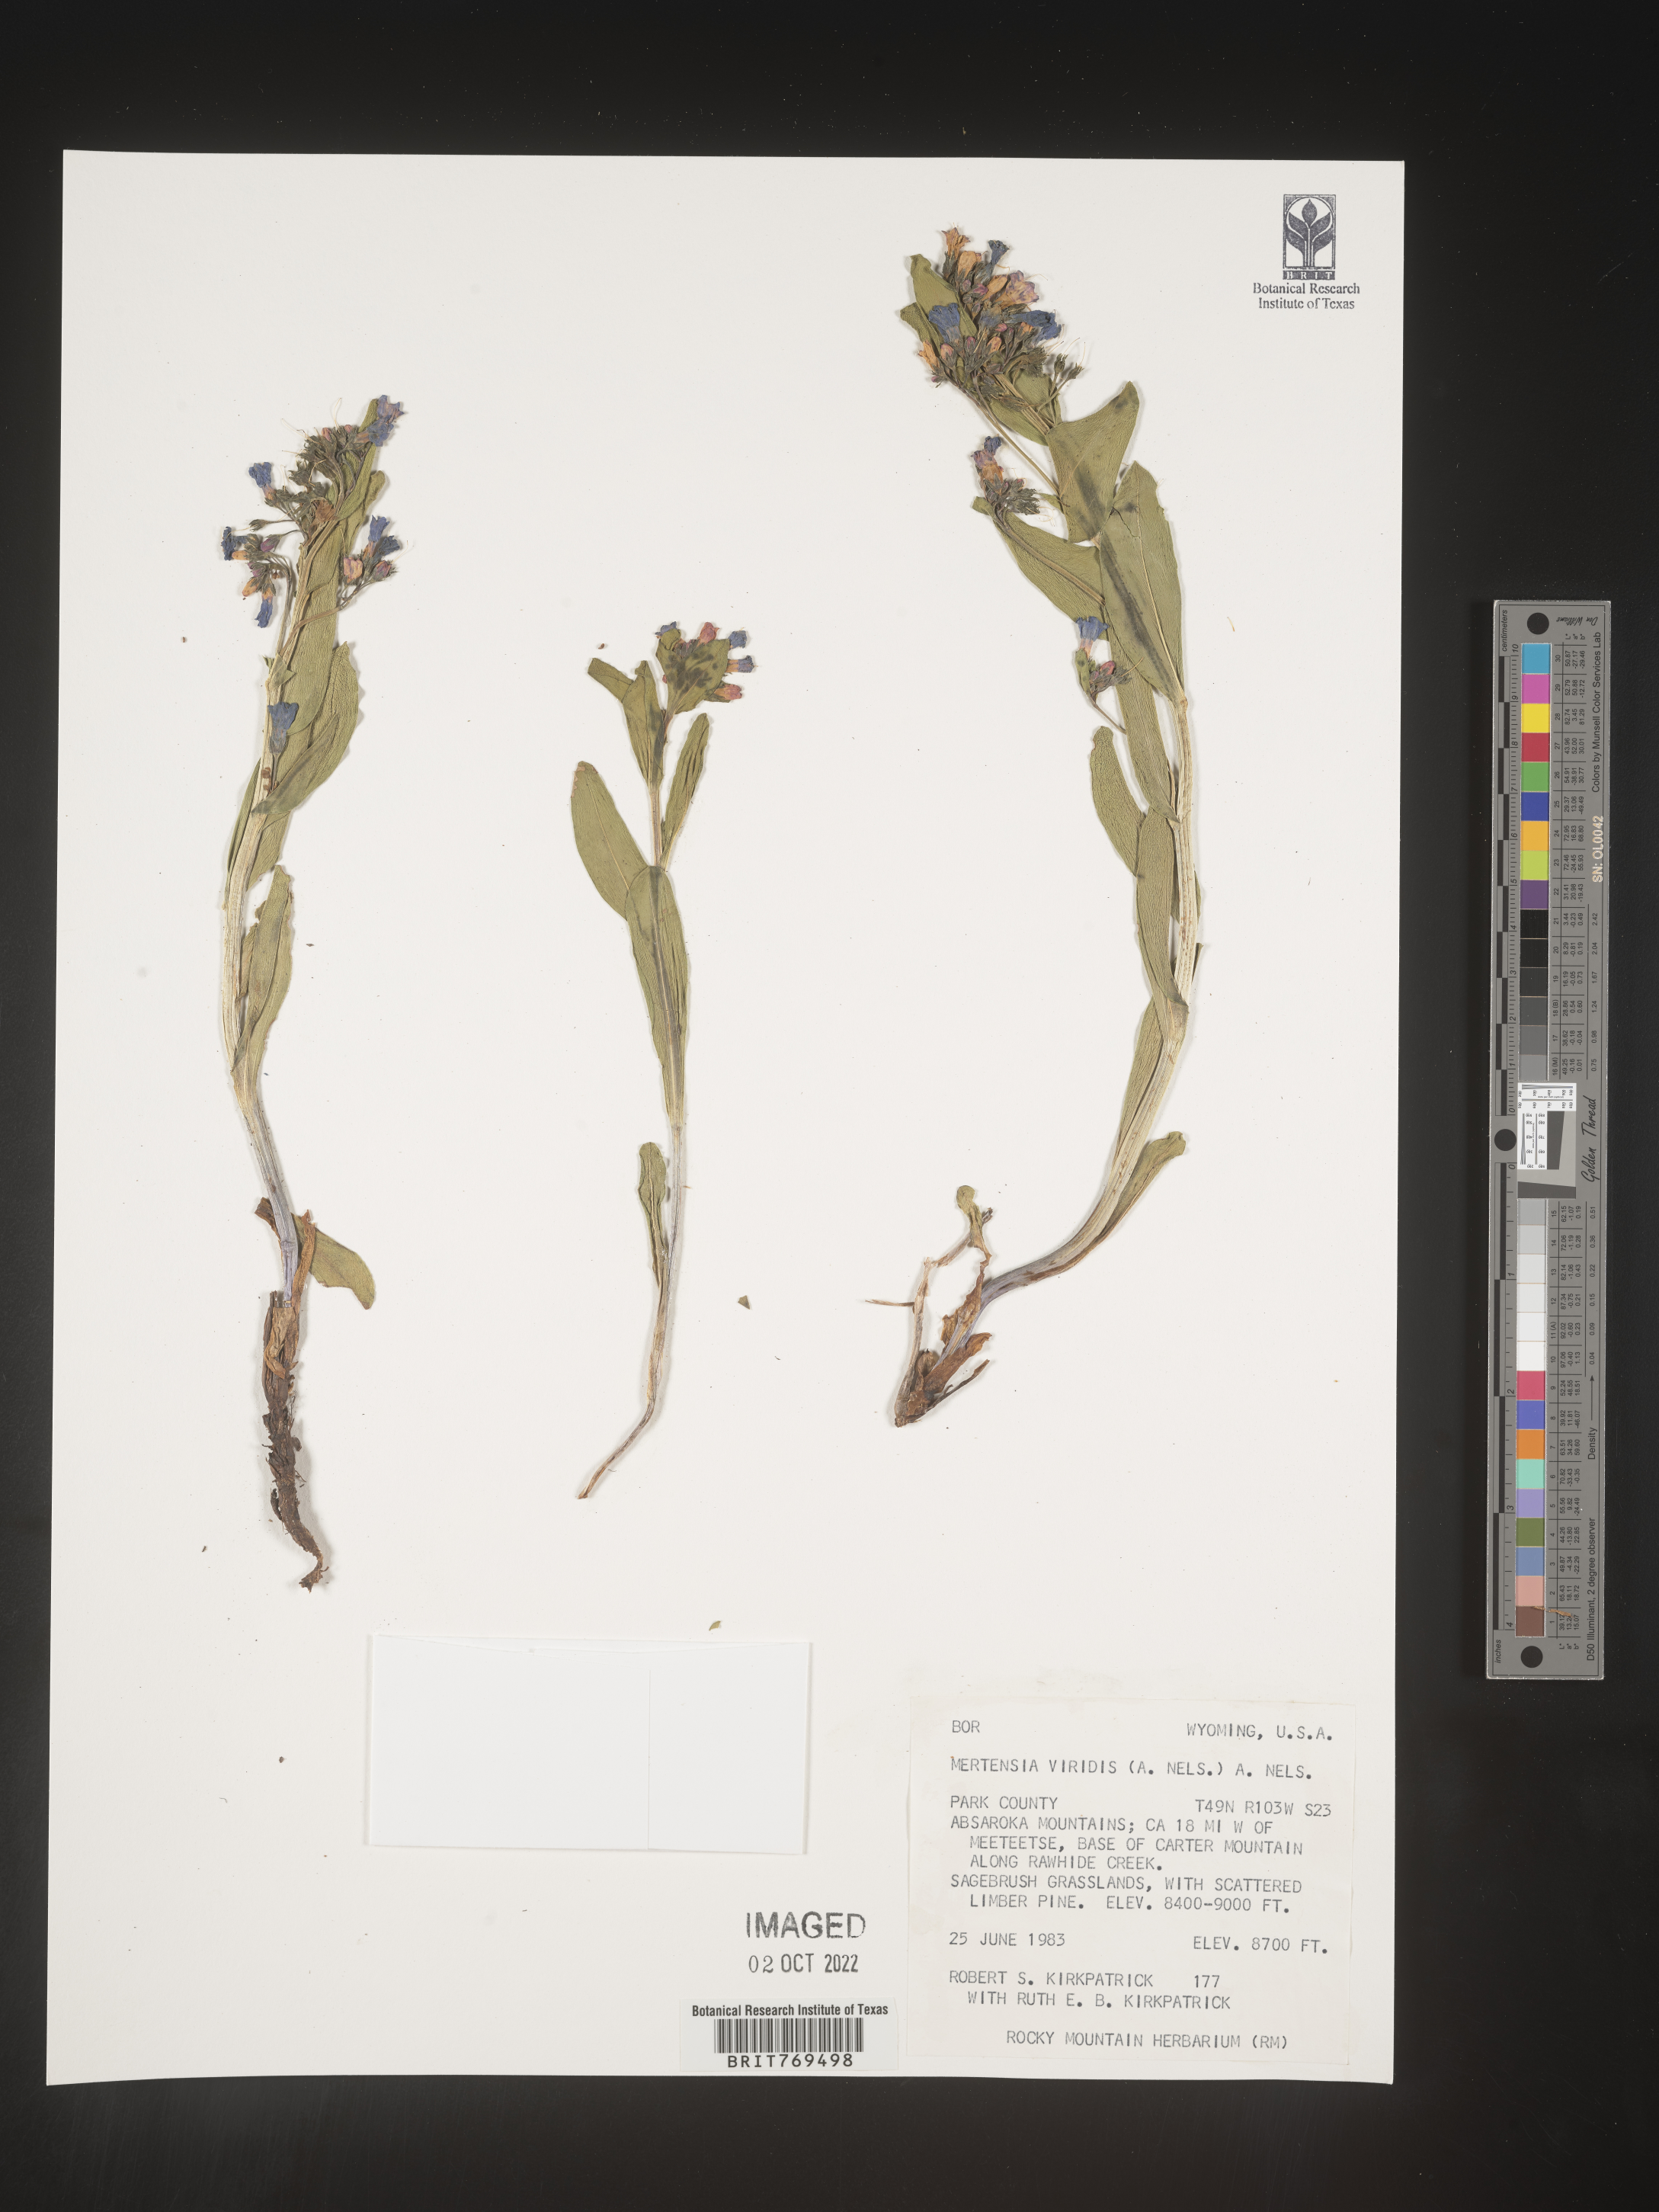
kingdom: Plantae
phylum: Tracheophyta
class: Magnoliopsida
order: Boraginales
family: Boraginaceae
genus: Mertensia
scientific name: Mertensia viridis
